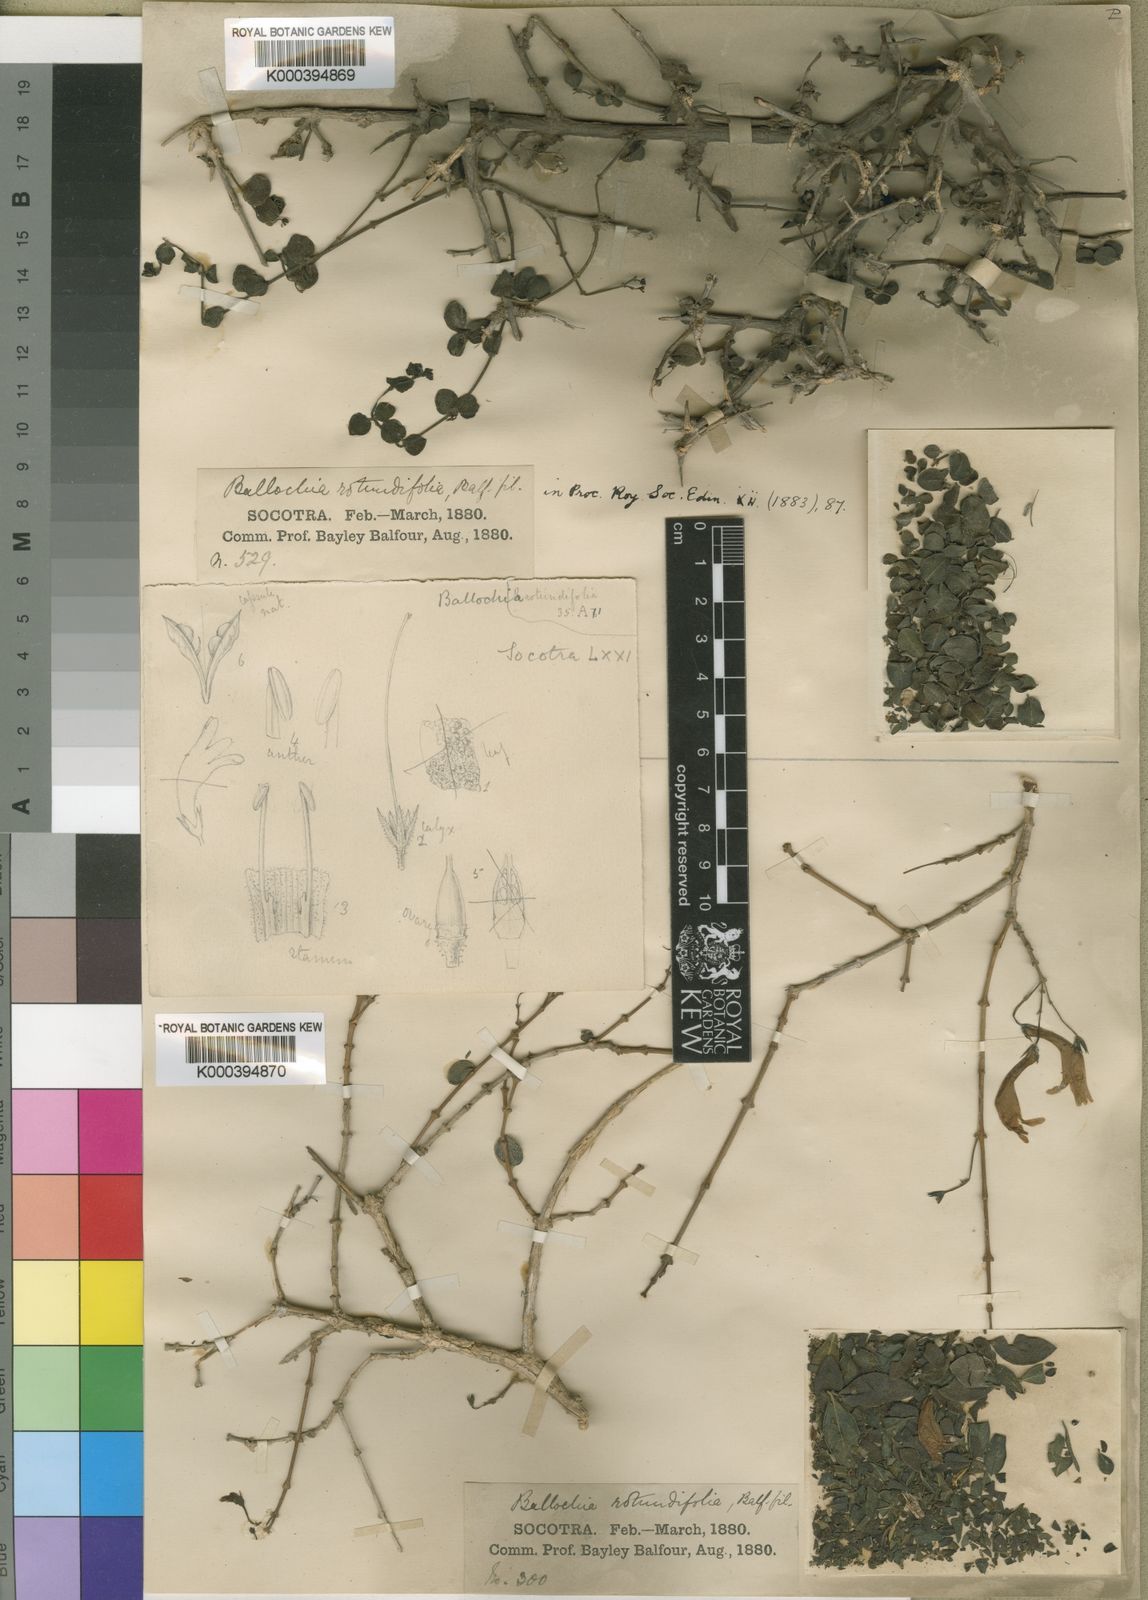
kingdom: Plantae
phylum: Tracheophyta
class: Magnoliopsida
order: Lamiales
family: Acanthaceae
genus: Ballochia
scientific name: Ballochia rotundifolia
